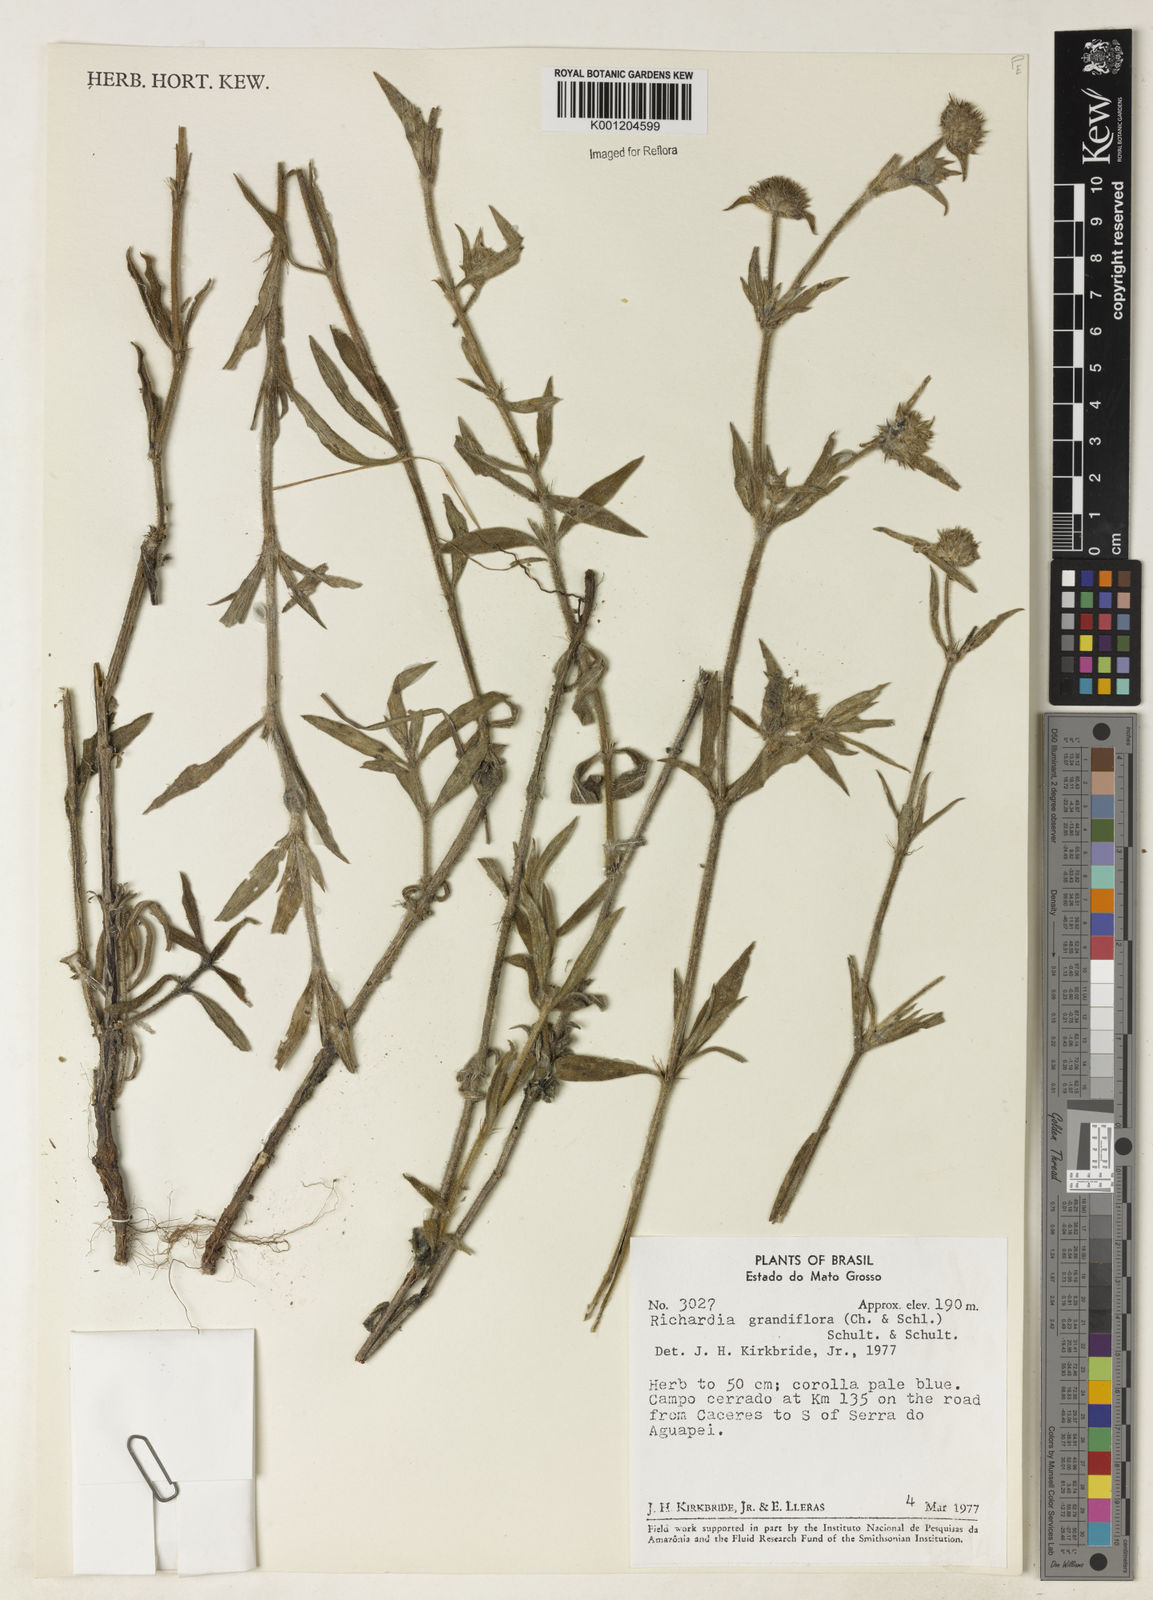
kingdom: Plantae
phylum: Tracheophyta
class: Magnoliopsida
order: Gentianales
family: Rubiaceae
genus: Richardia
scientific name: Richardia grandiflora
